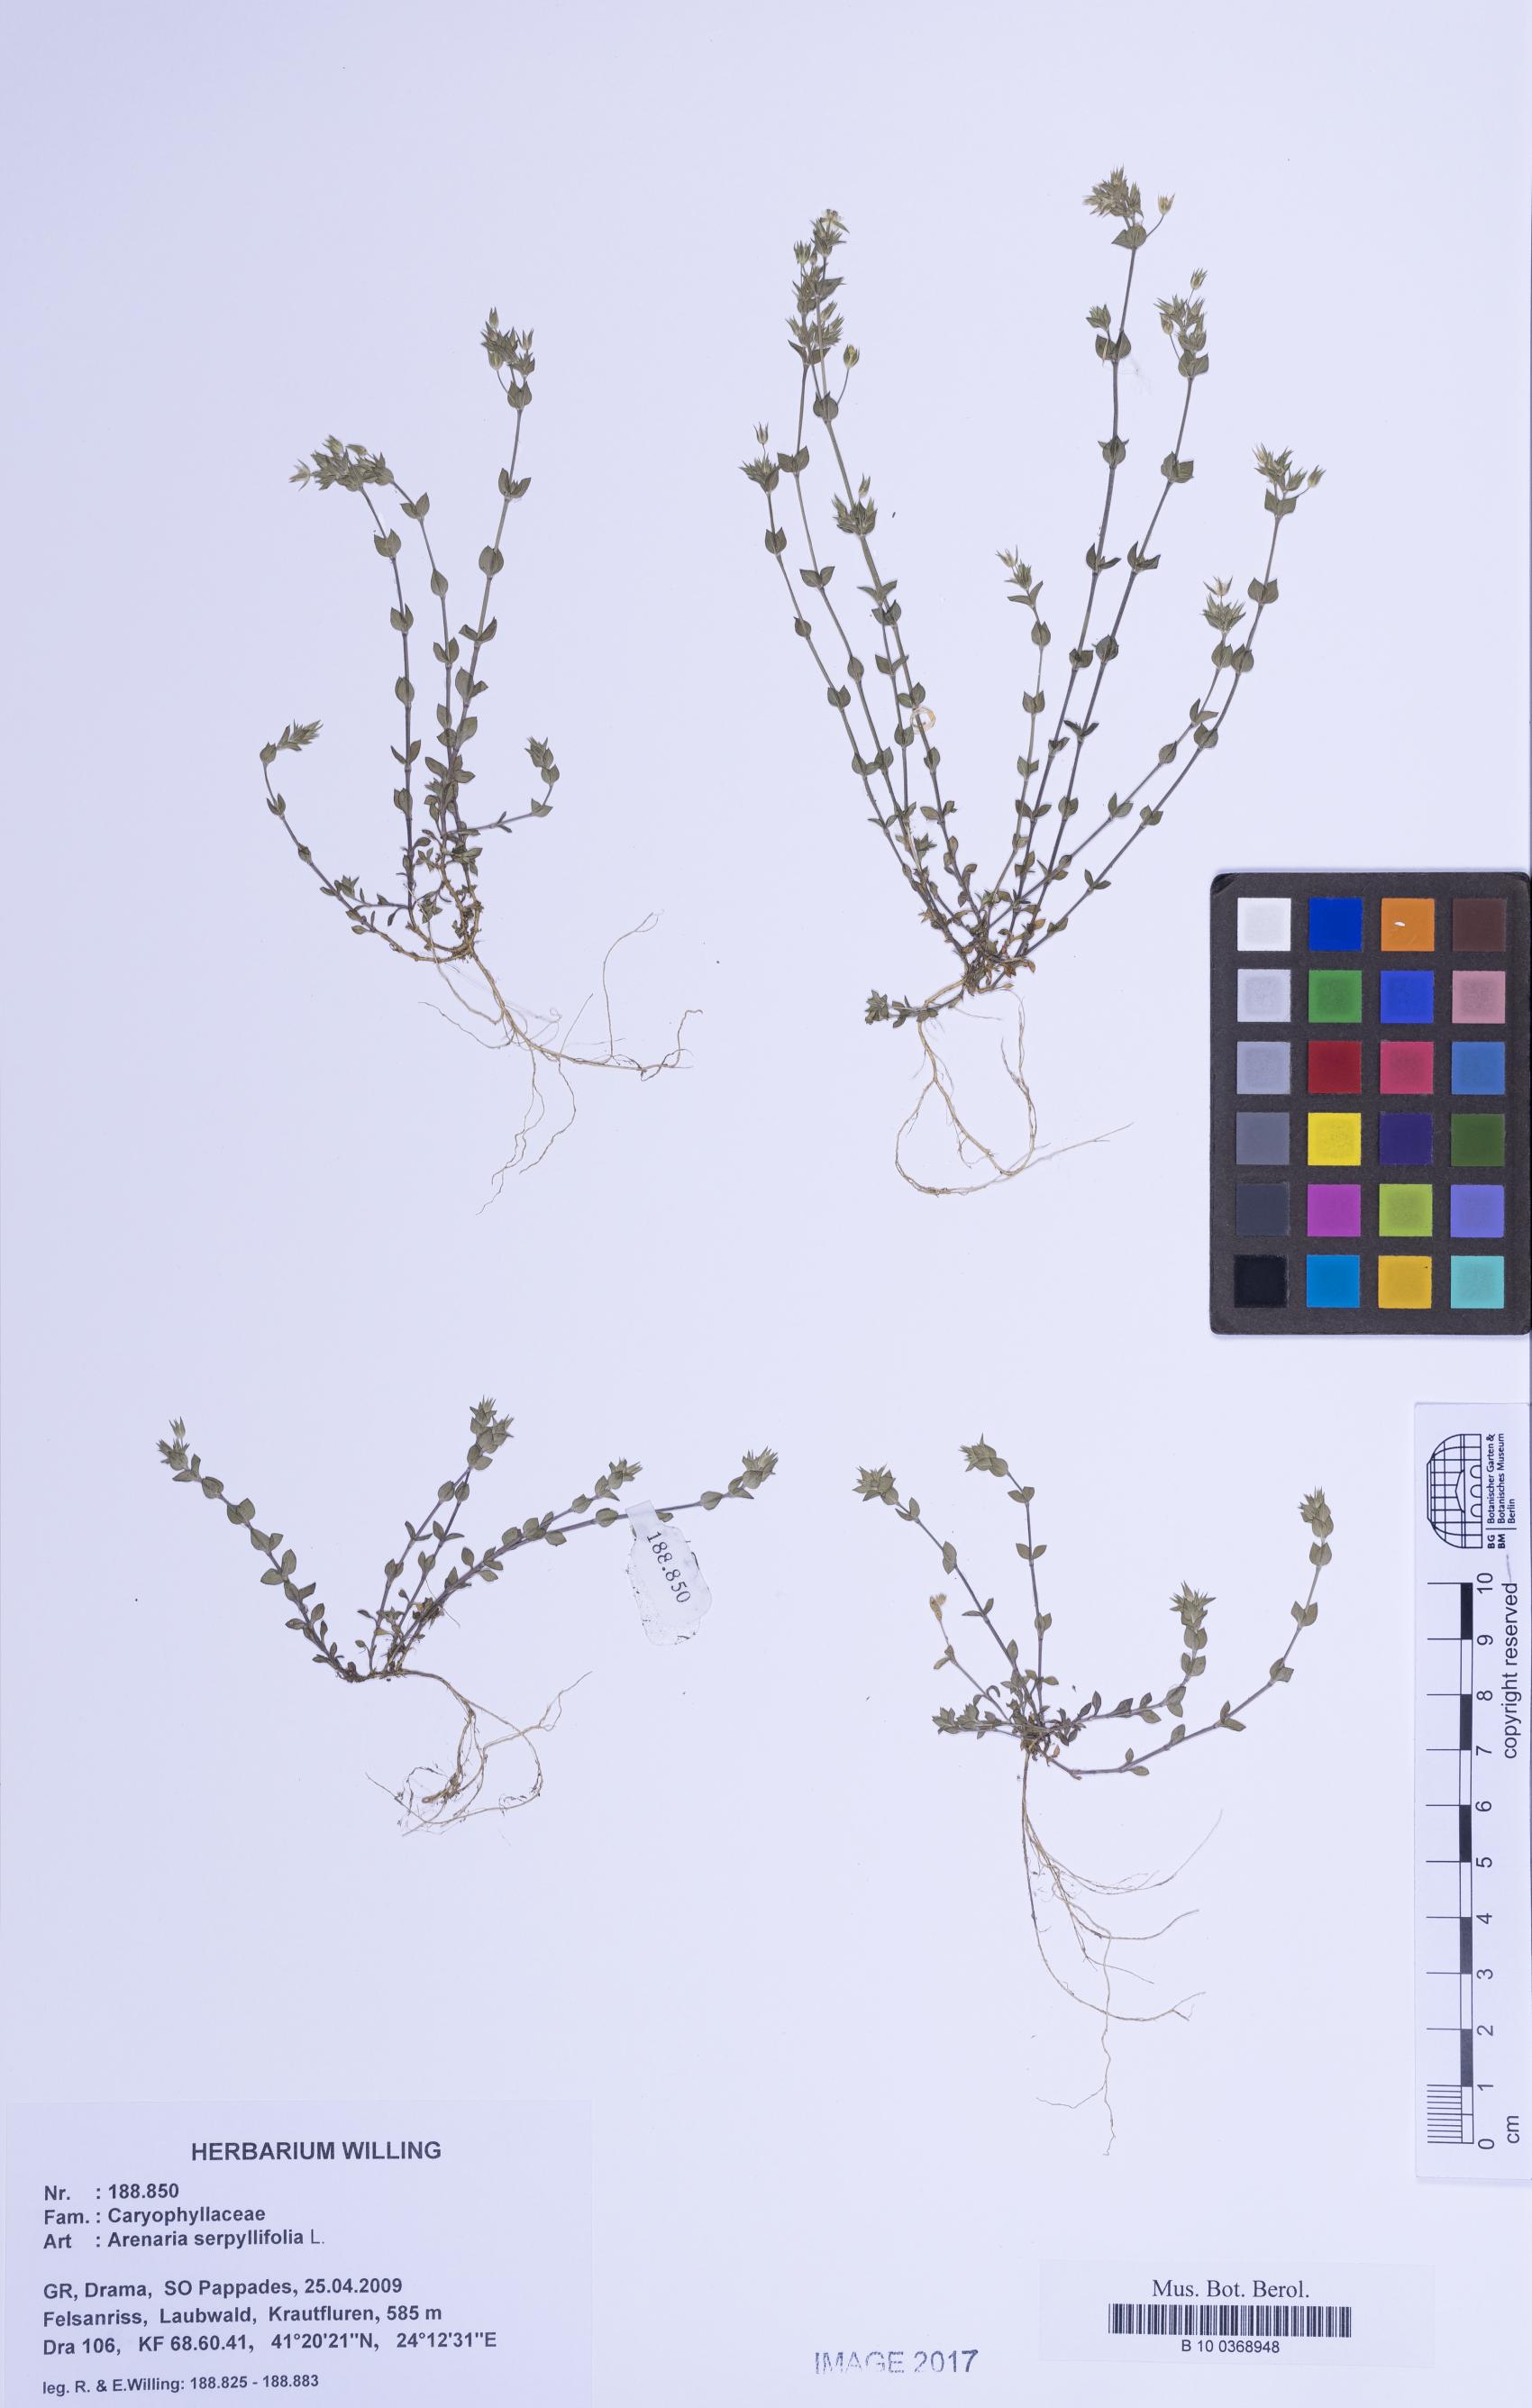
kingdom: Plantae
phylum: Tracheophyta
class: Magnoliopsida
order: Caryophyllales
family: Caryophyllaceae
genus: Arenaria
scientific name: Arenaria serpyllifolia
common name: Thyme-leaved sandwort
